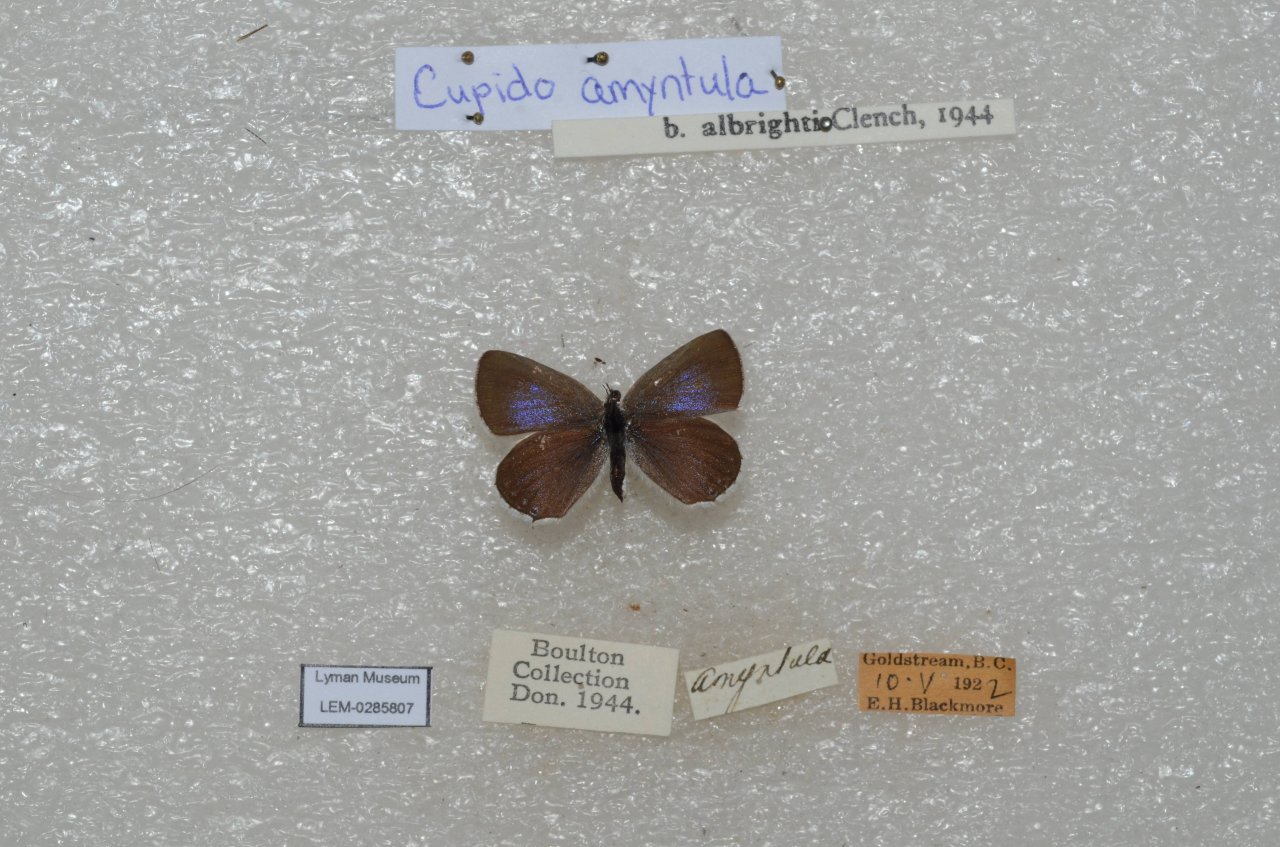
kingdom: Animalia
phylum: Arthropoda
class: Insecta
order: Lepidoptera
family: Lycaenidae
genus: Elkalyce
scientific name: Elkalyce amyntula
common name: Western Tailed-Blue
